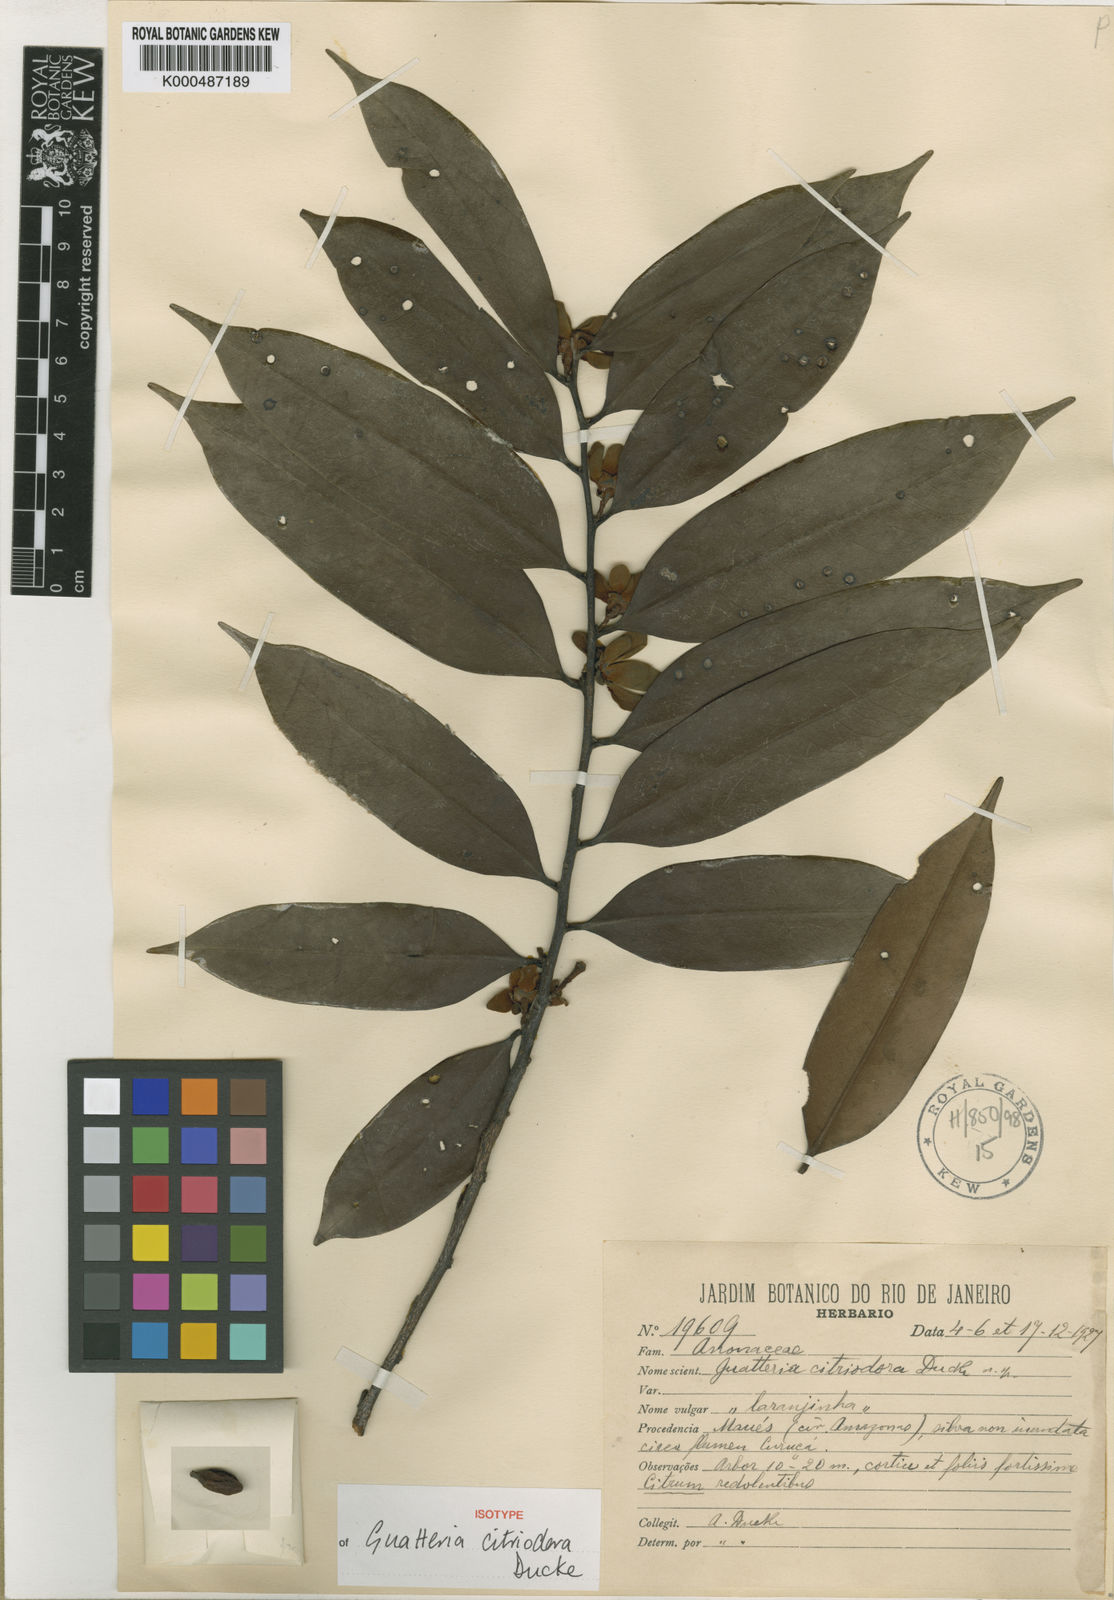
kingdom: Plantae
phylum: Tracheophyta
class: Magnoliopsida
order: Magnoliales
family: Annonaceae
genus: Guatteria
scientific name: Guatteria citriodora
